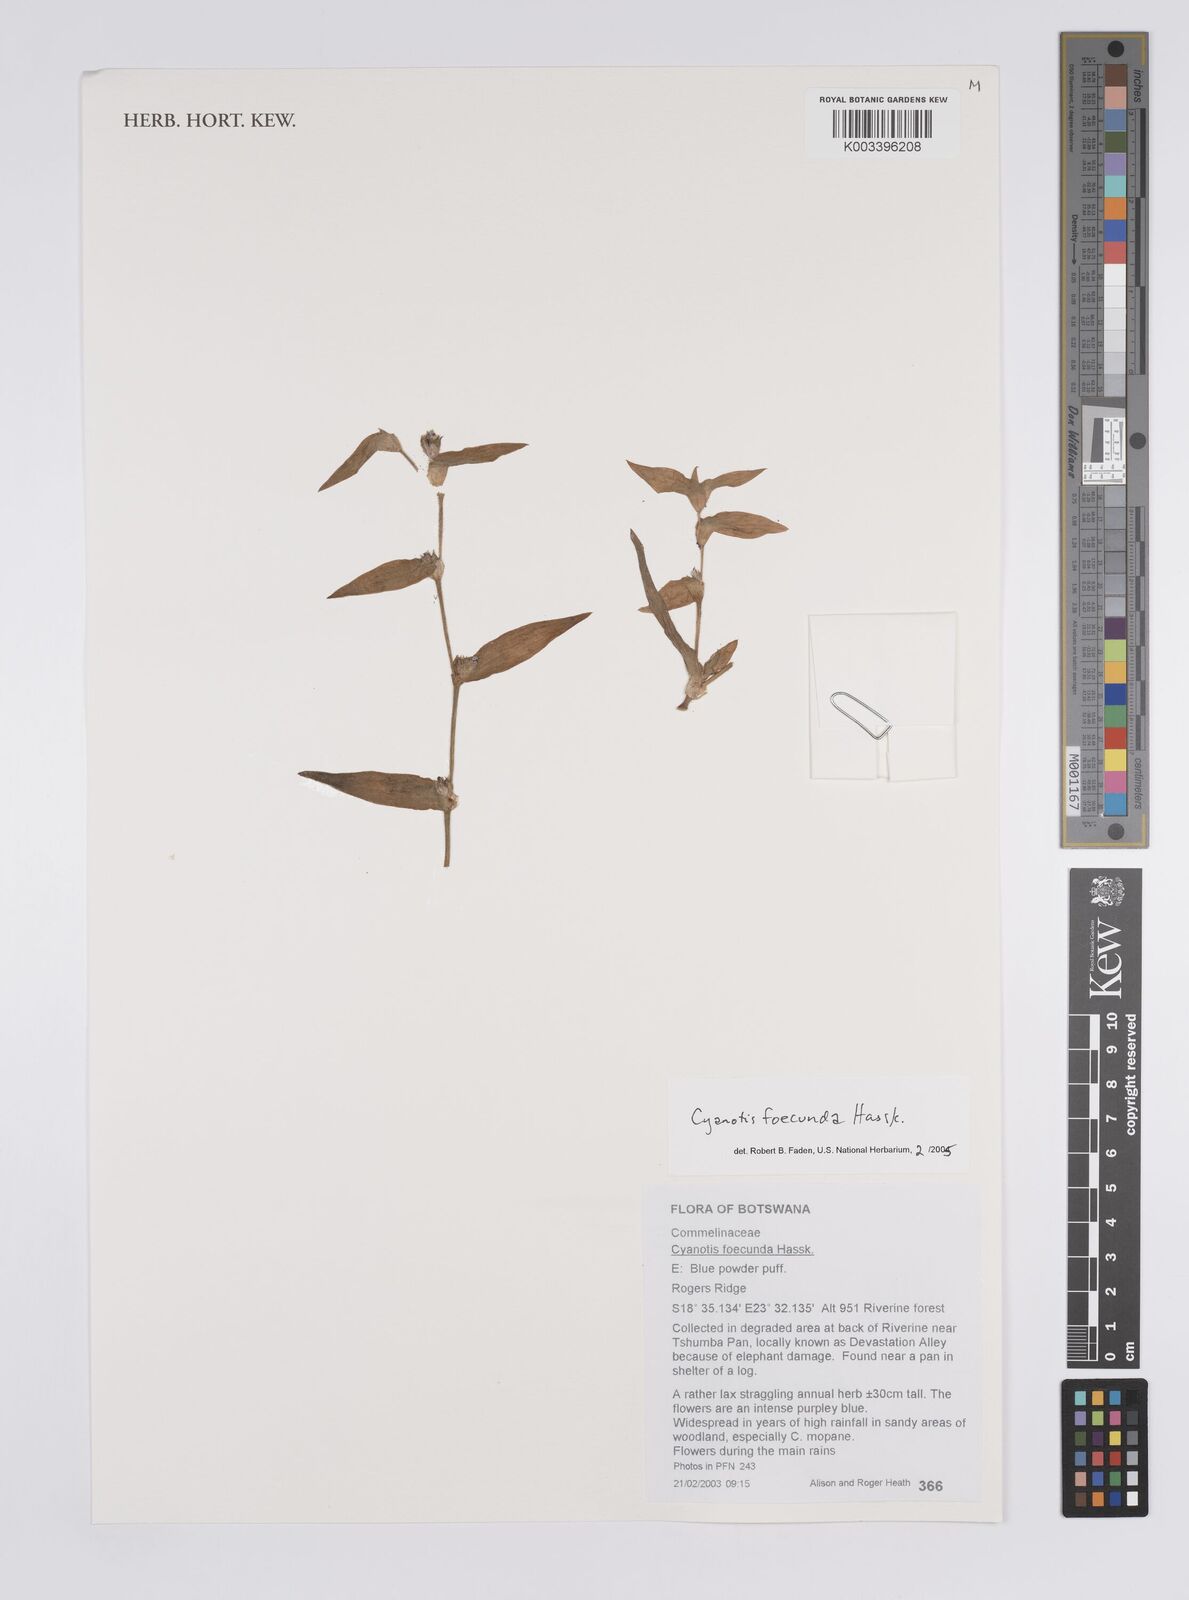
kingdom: Plantae
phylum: Tracheophyta
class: Liliopsida
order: Commelinales
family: Commelinaceae
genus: Cyanotis
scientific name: Cyanotis foecunda
